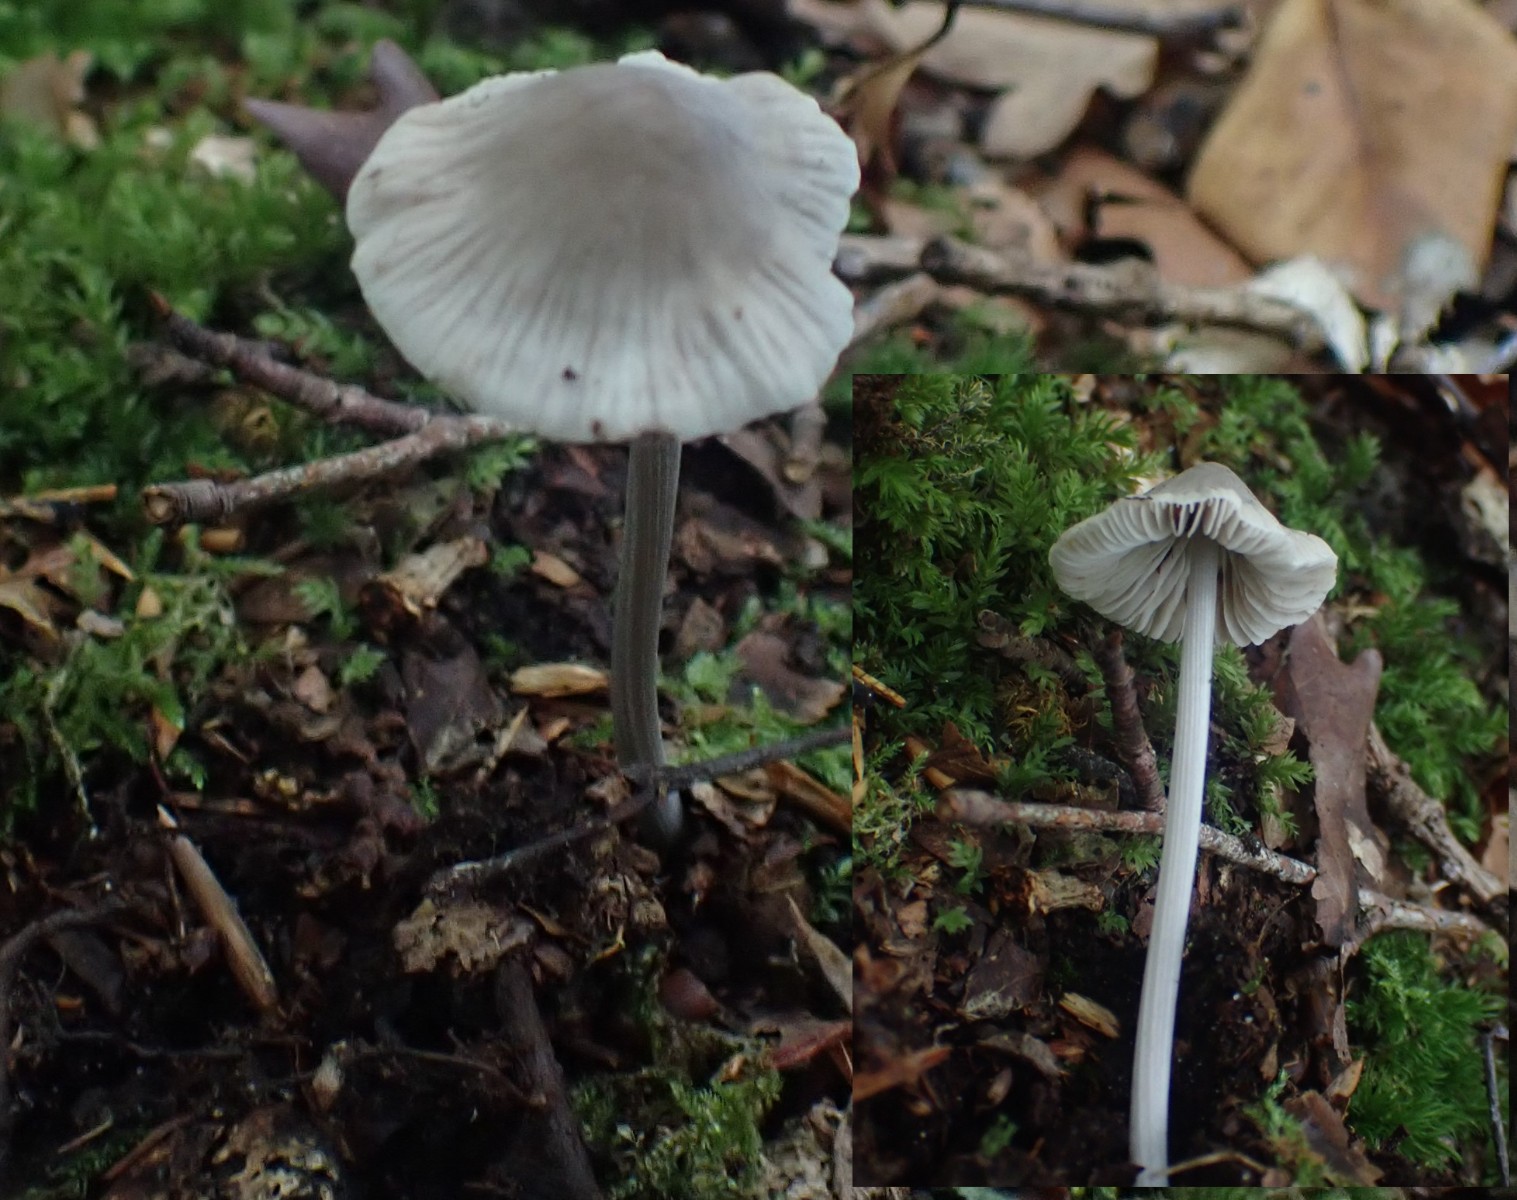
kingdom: Fungi
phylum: Basidiomycota
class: Agaricomycetes
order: Agaricales
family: Mycenaceae
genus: Mycena
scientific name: Mycena polygramma
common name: mangestribet huesvamp
